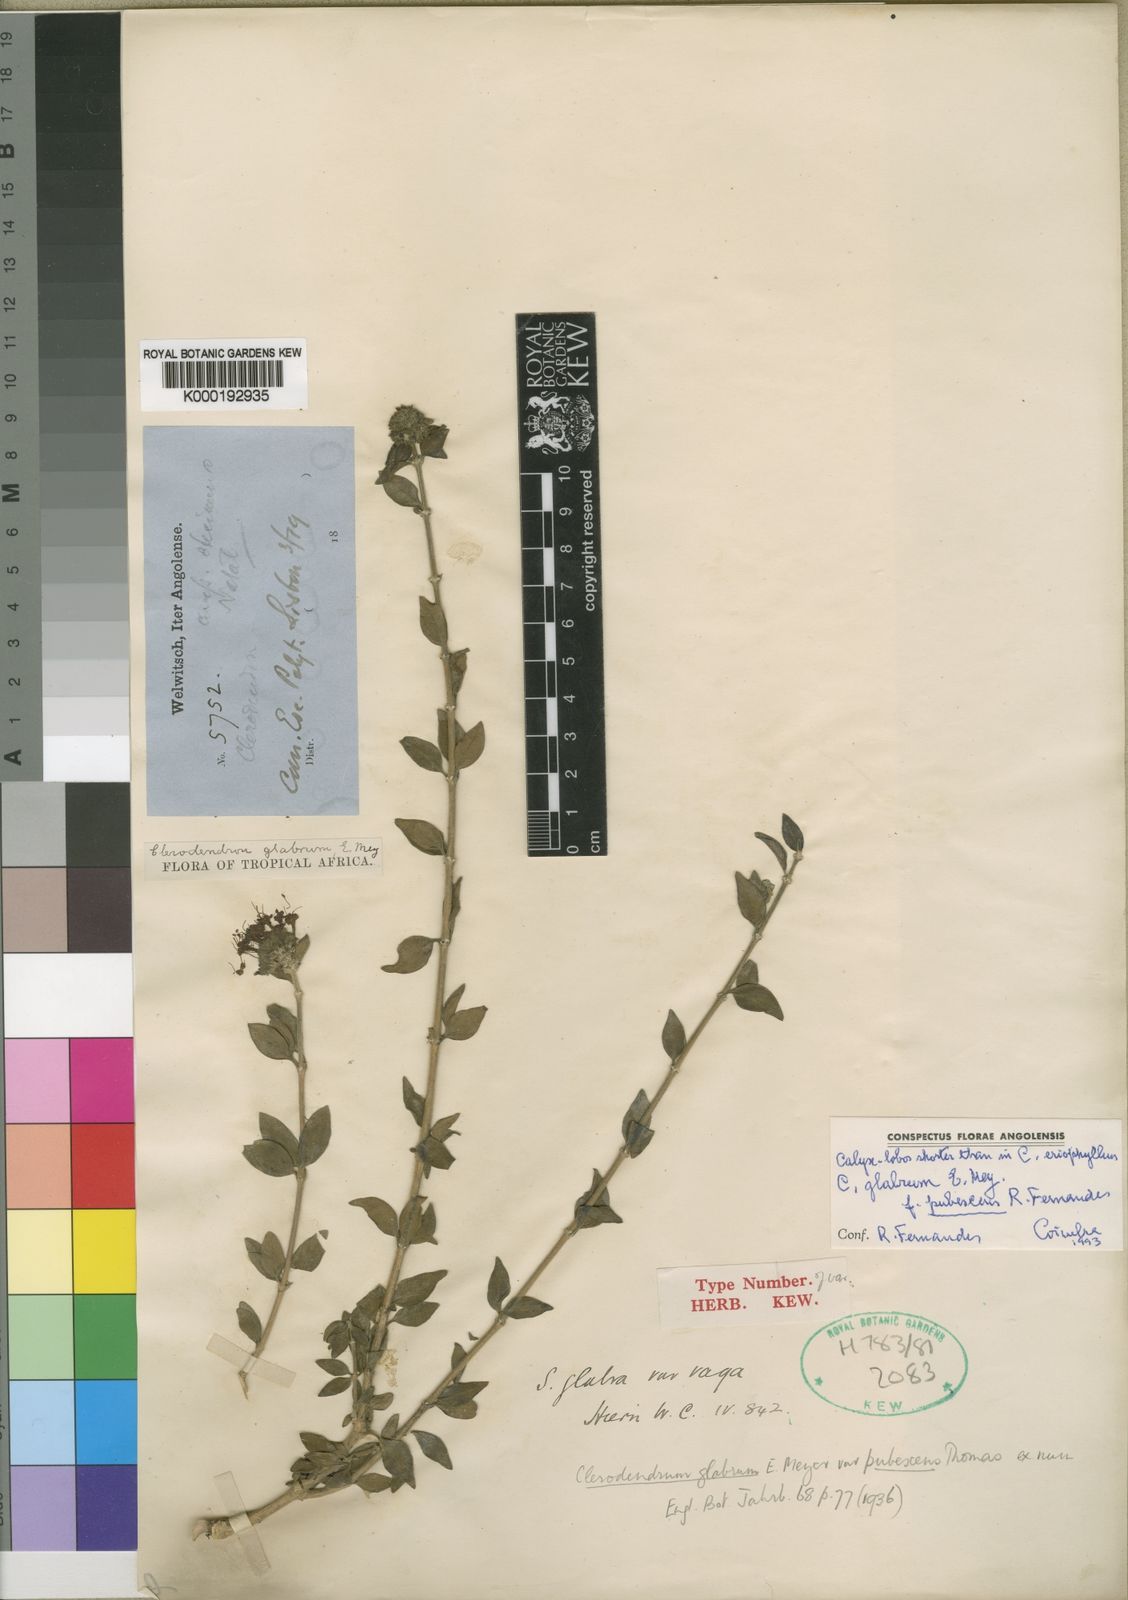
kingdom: Plantae
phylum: Tracheophyta
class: Magnoliopsida
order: Lamiales
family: Lamiaceae
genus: Volkameria
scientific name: Volkameria glabra
